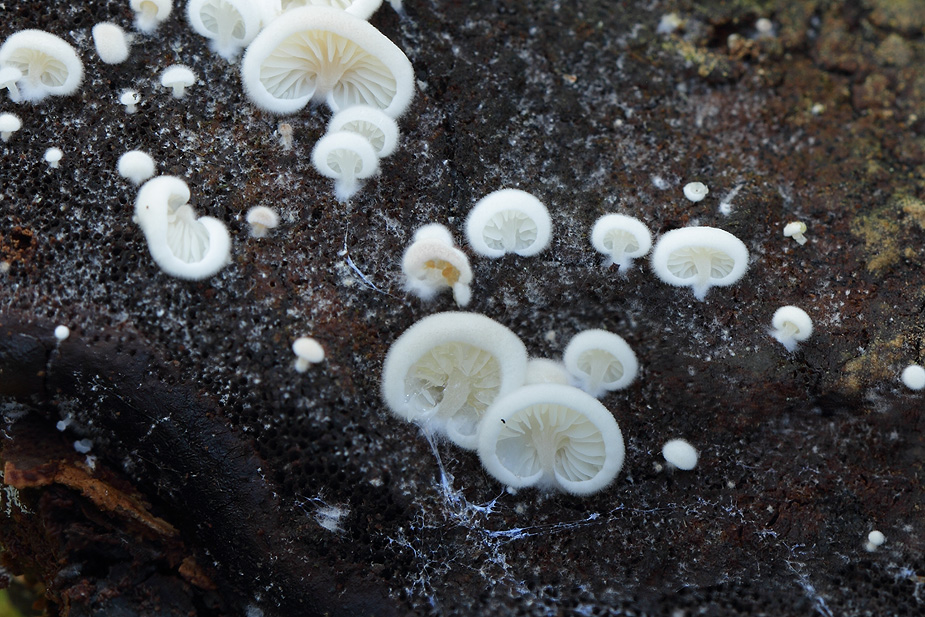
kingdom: Fungi
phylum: Basidiomycota
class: Agaricomycetes
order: Agaricales
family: Entolomataceae
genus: Clitopilus
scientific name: Clitopilus hobsonii
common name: Miller's oysterling
